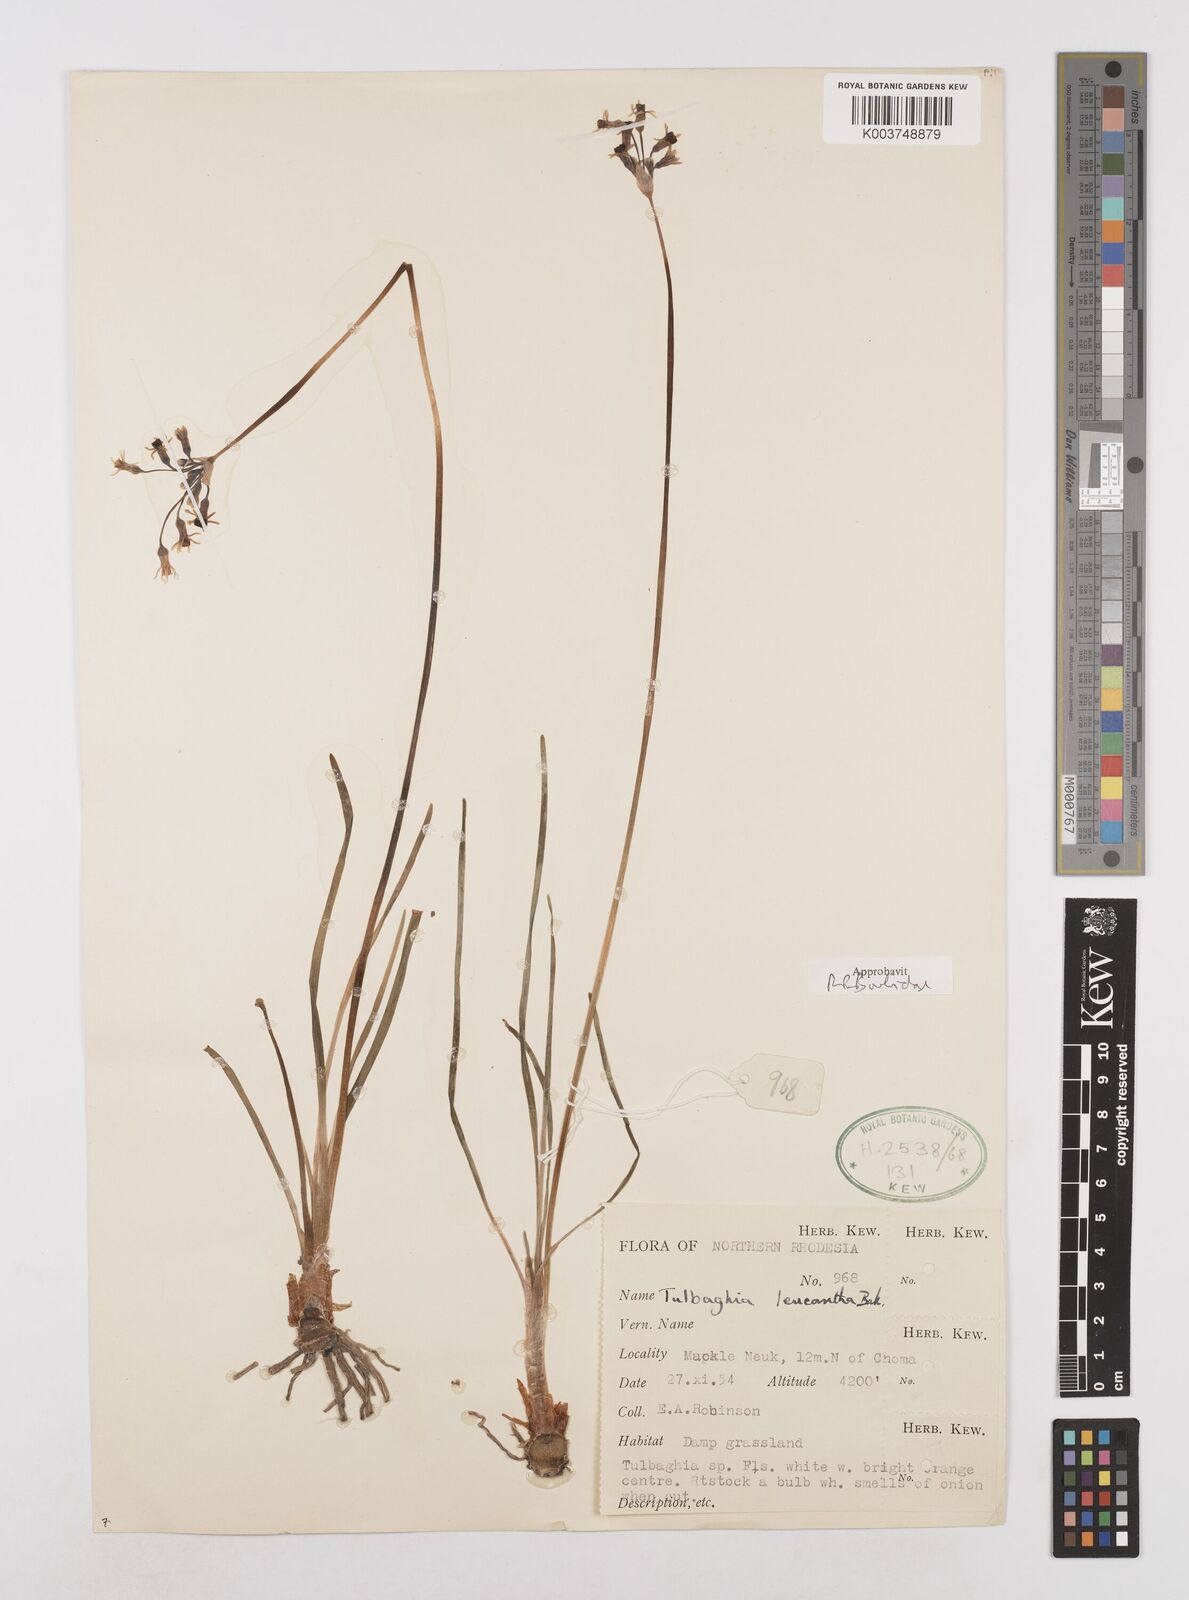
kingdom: Plantae
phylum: Tracheophyta
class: Liliopsida
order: Asparagales
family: Amaryllidaceae
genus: Tulbaghia
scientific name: Tulbaghia leucantha
